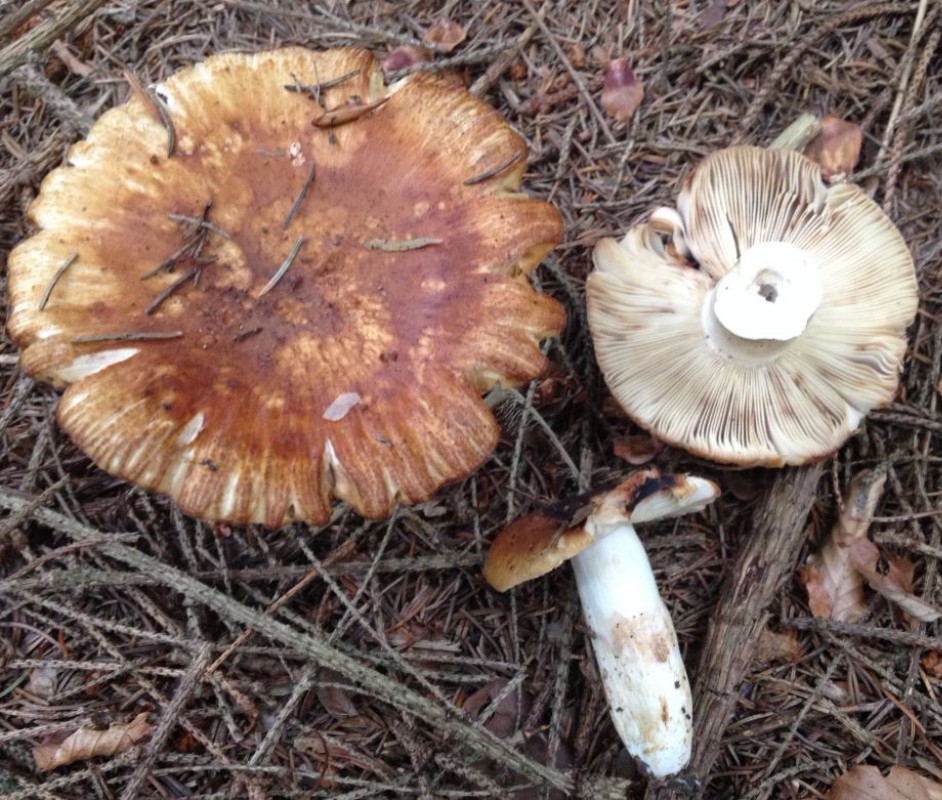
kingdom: Fungi
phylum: Basidiomycota
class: Agaricomycetes
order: Russulales
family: Russulaceae
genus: Russula
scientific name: Russula foetens
